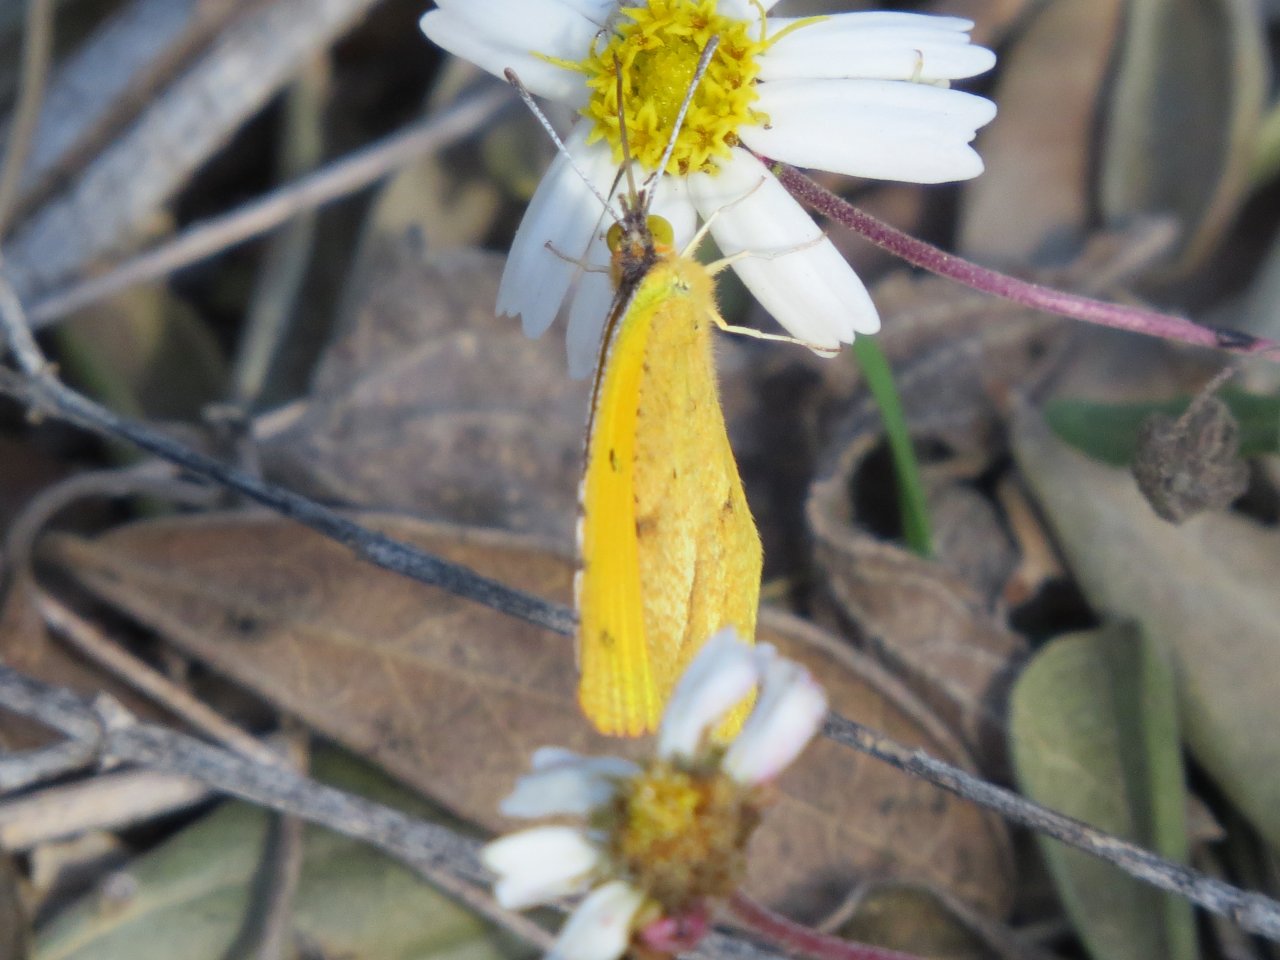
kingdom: Animalia
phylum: Arthropoda
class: Insecta
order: Lepidoptera
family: Pieridae
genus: Abaeis
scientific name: Abaeis nicippe
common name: Sleepy Orange
